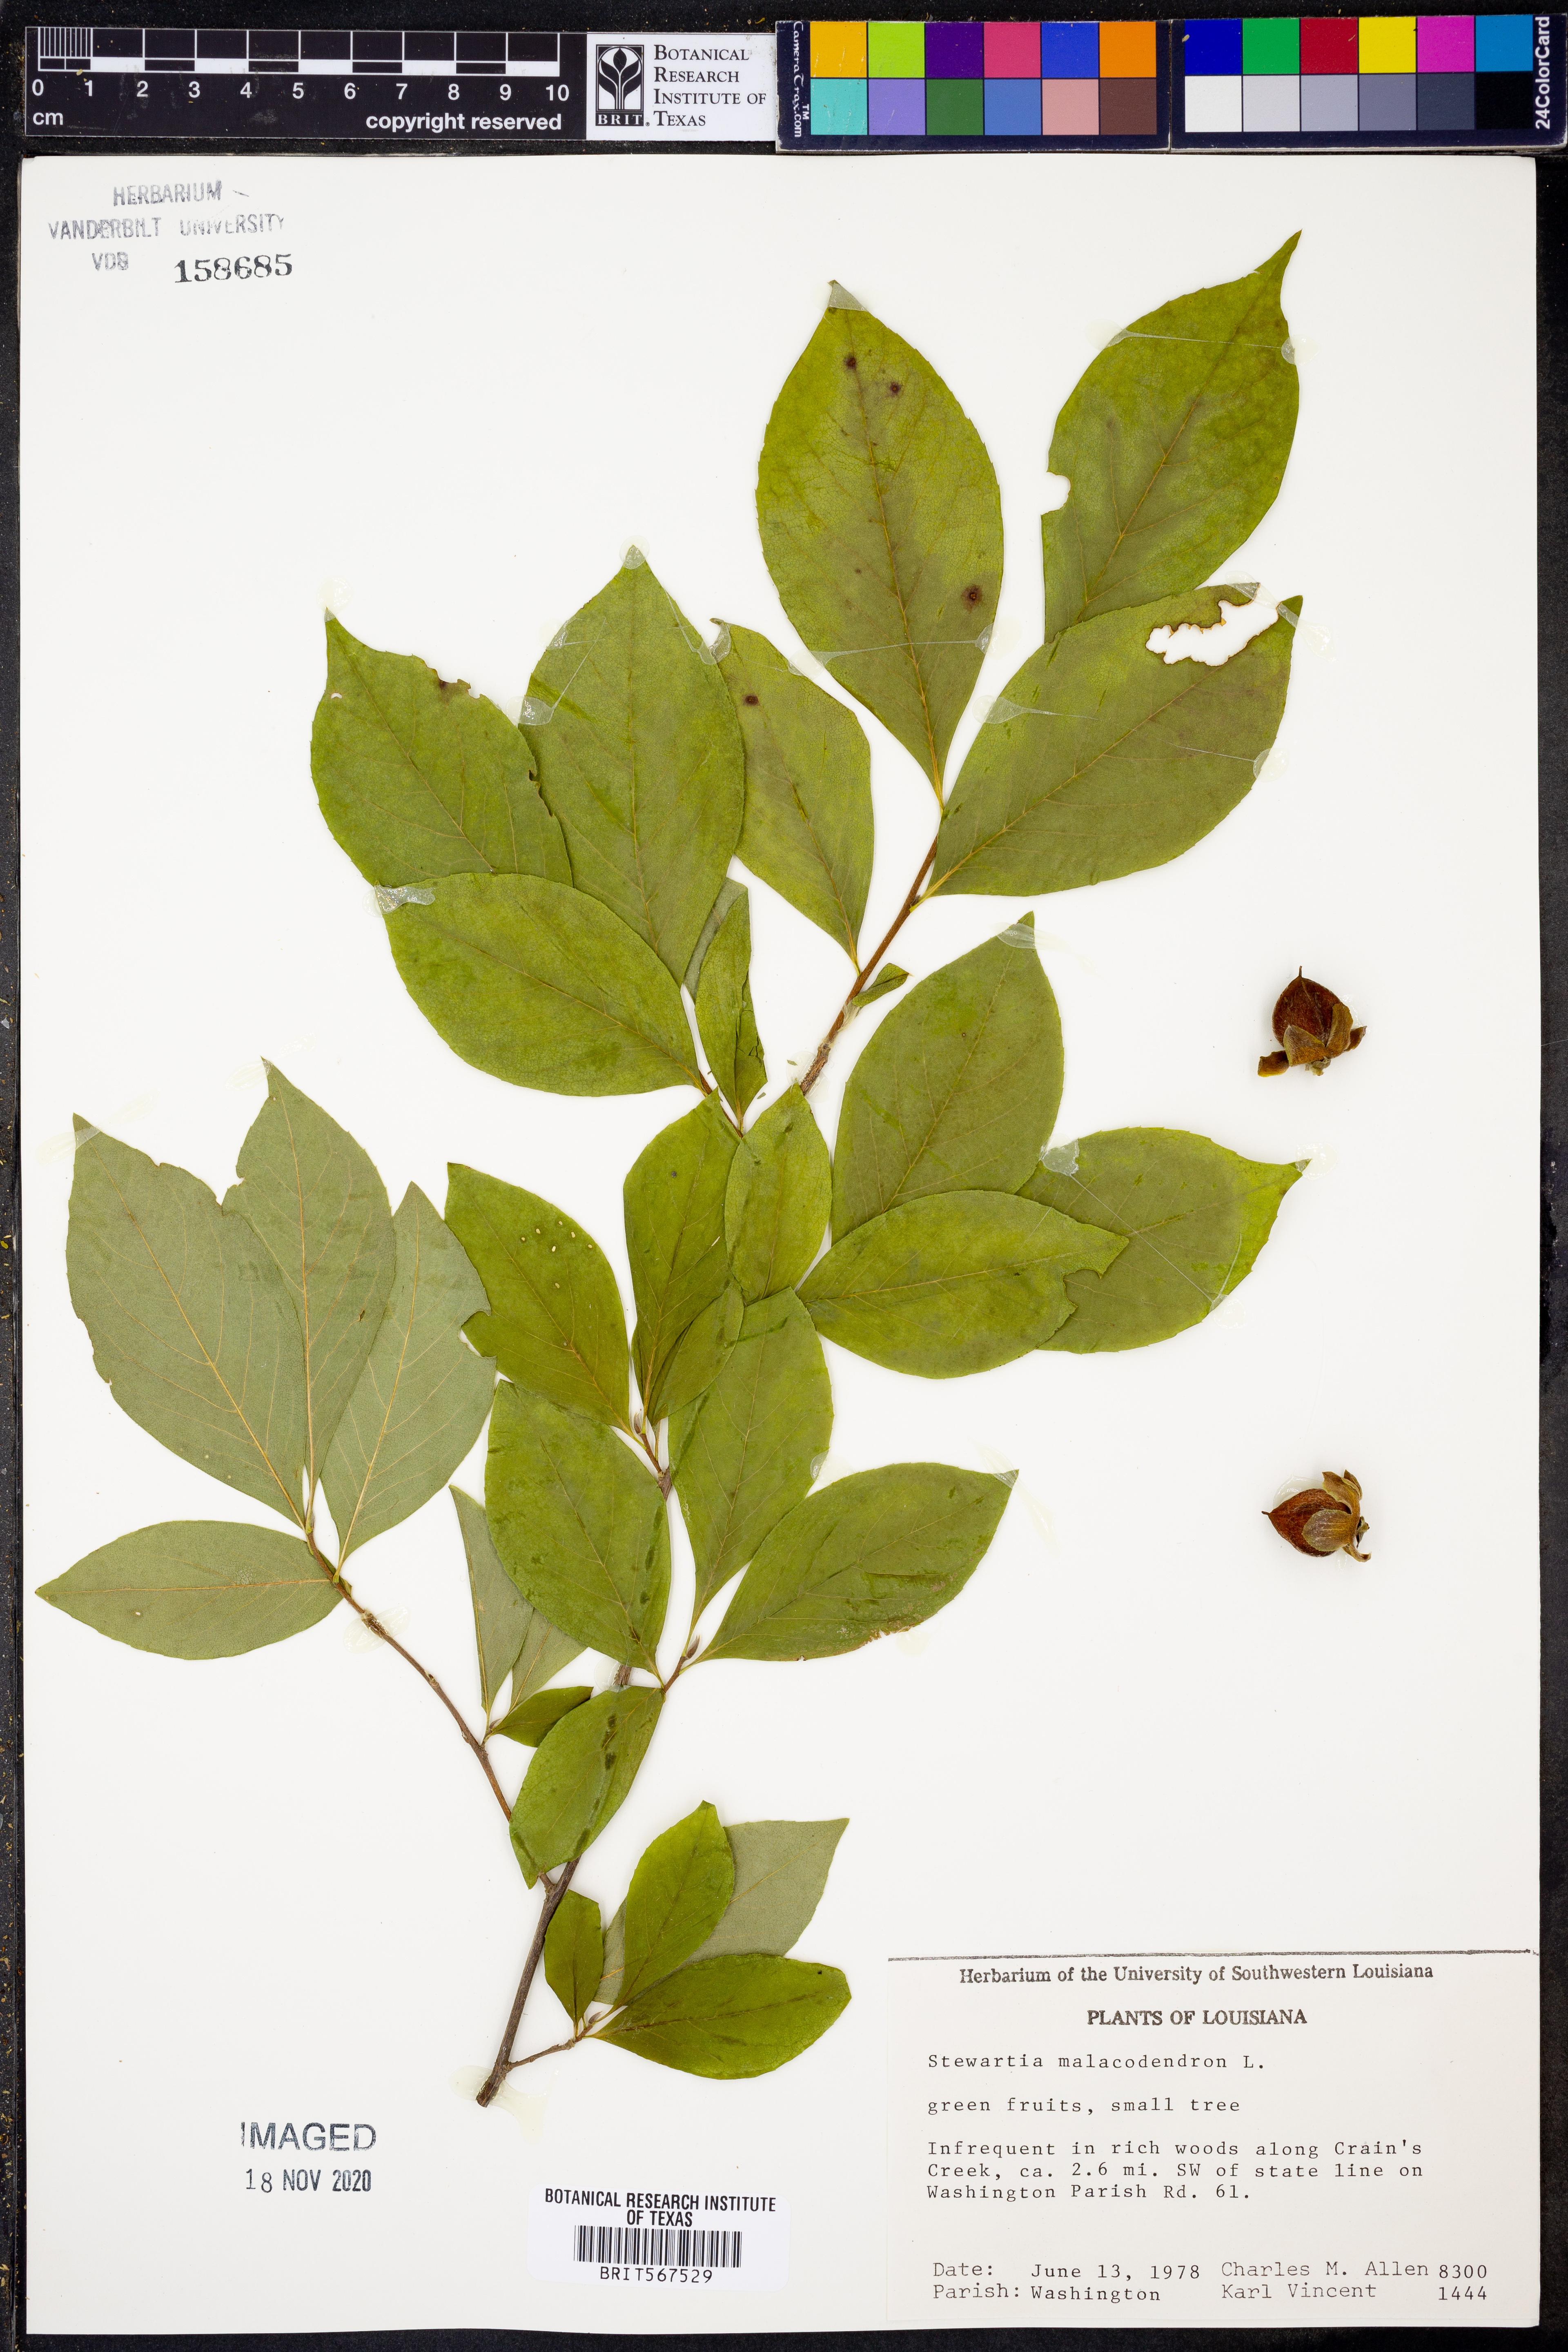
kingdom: Plantae
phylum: Tracheophyta
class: Magnoliopsida
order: Ericales
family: Theaceae
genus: Stewartia
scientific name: Stewartia malacodendron
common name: Virginia stewartia
